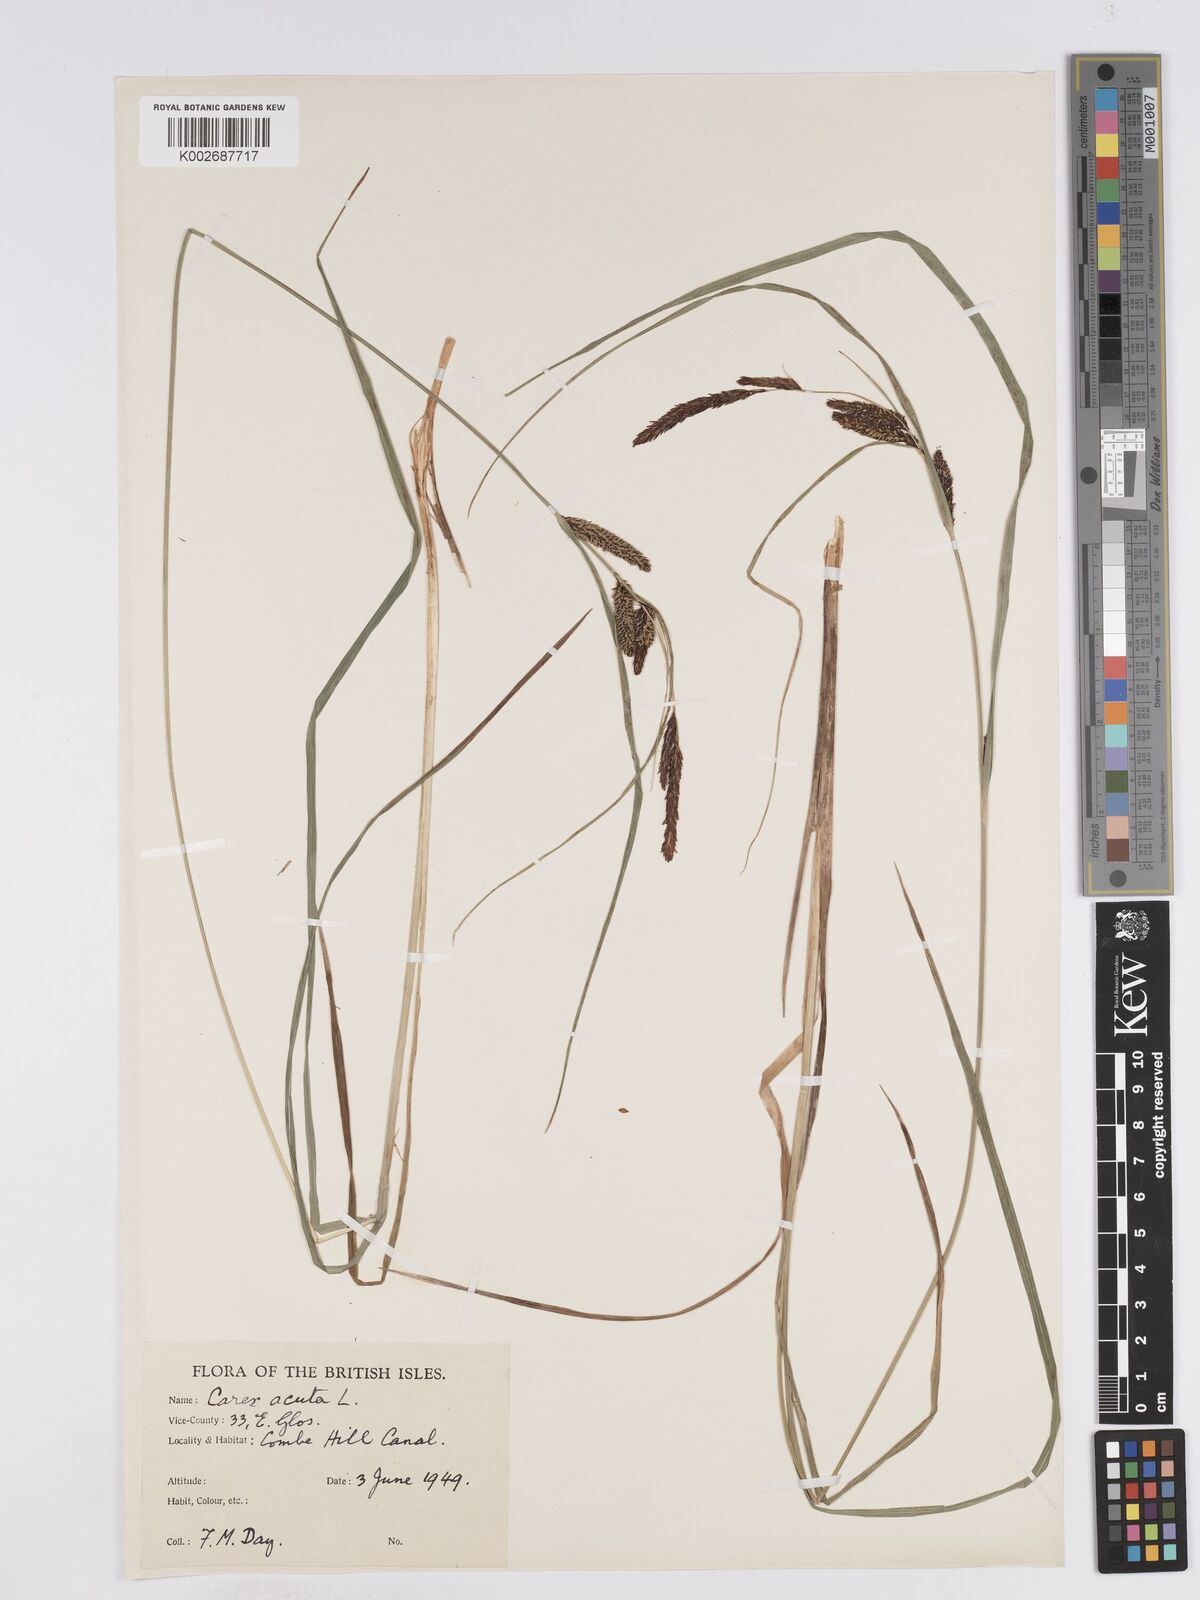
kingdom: Plantae
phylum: Tracheophyta
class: Liliopsida
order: Poales
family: Cyperaceae
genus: Carex
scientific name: Carex acuta
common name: Slender tufted-sedge
